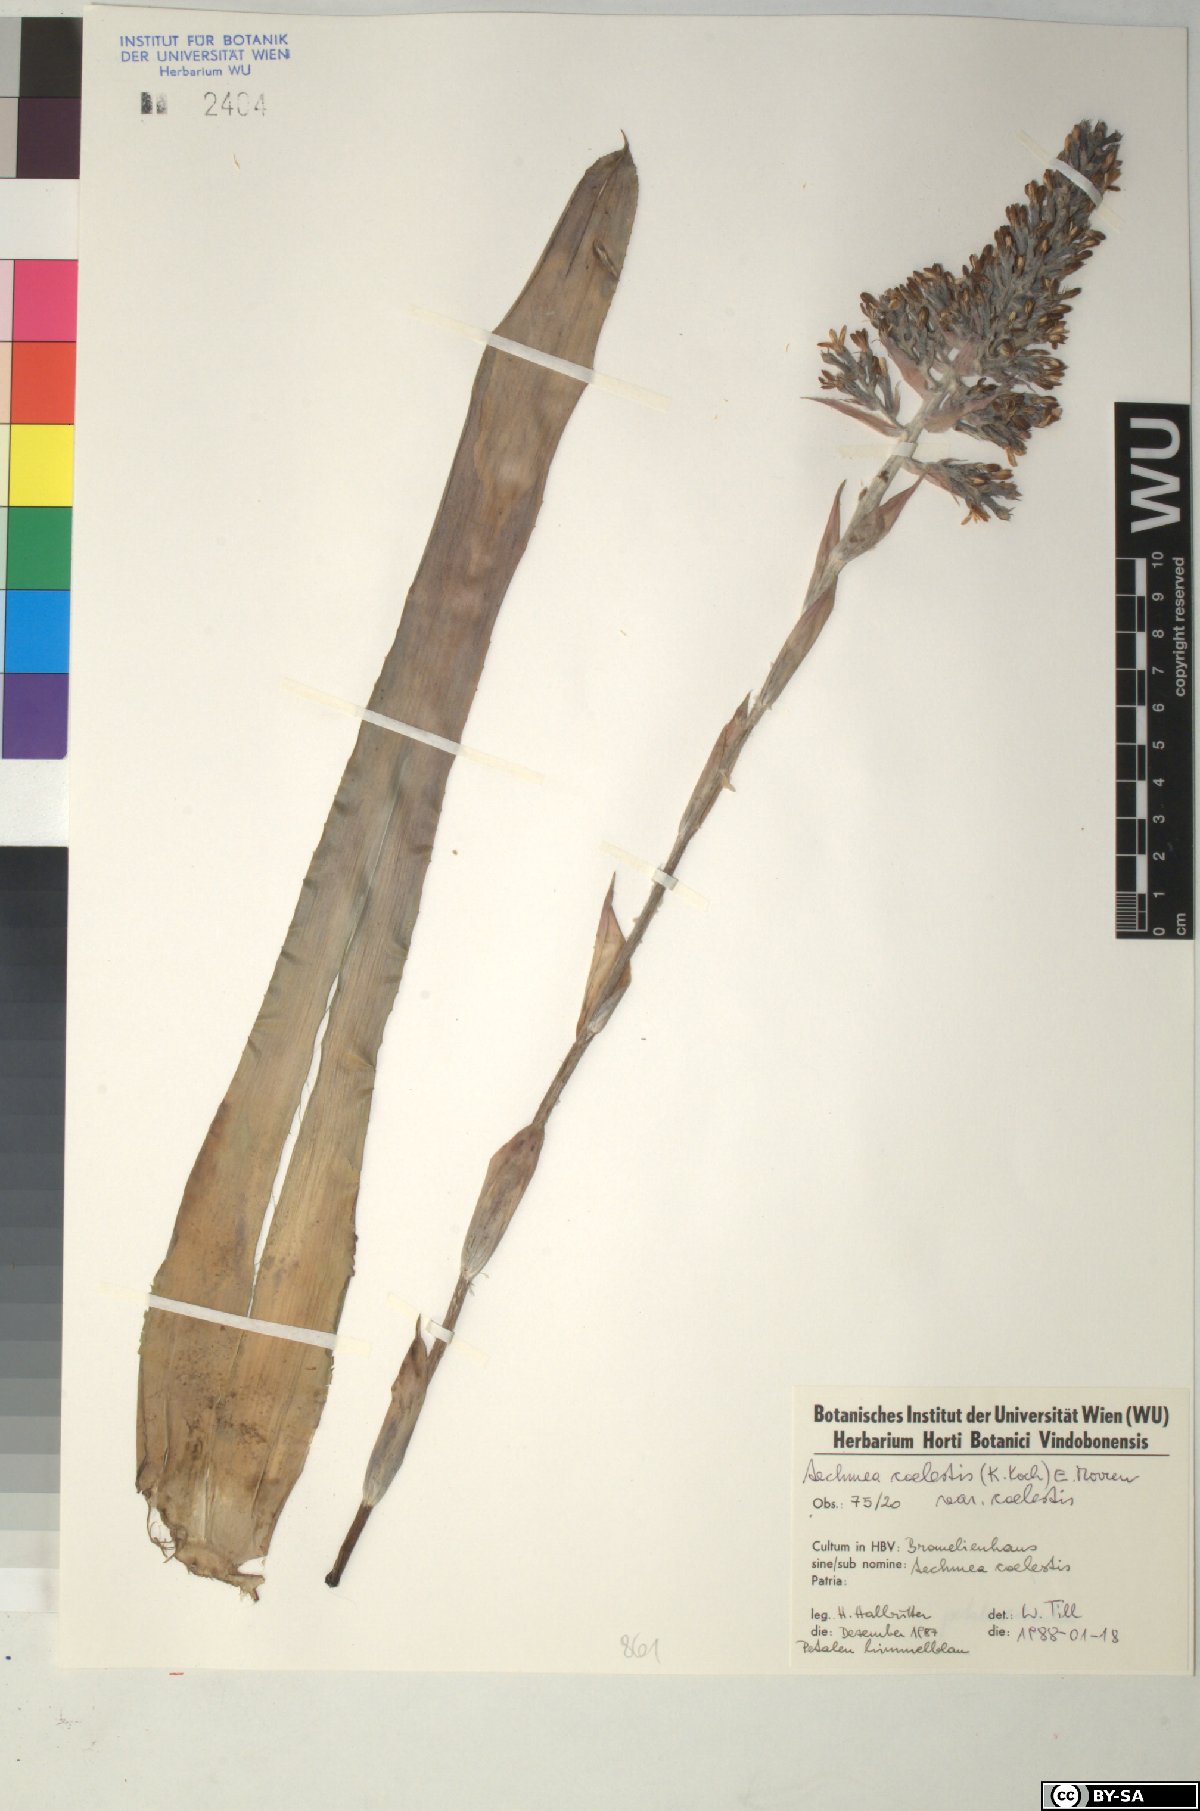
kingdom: Plantae
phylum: Tracheophyta
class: Liliopsida
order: Poales
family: Bromeliaceae
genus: Aechmea
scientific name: Aechmea coelestis
